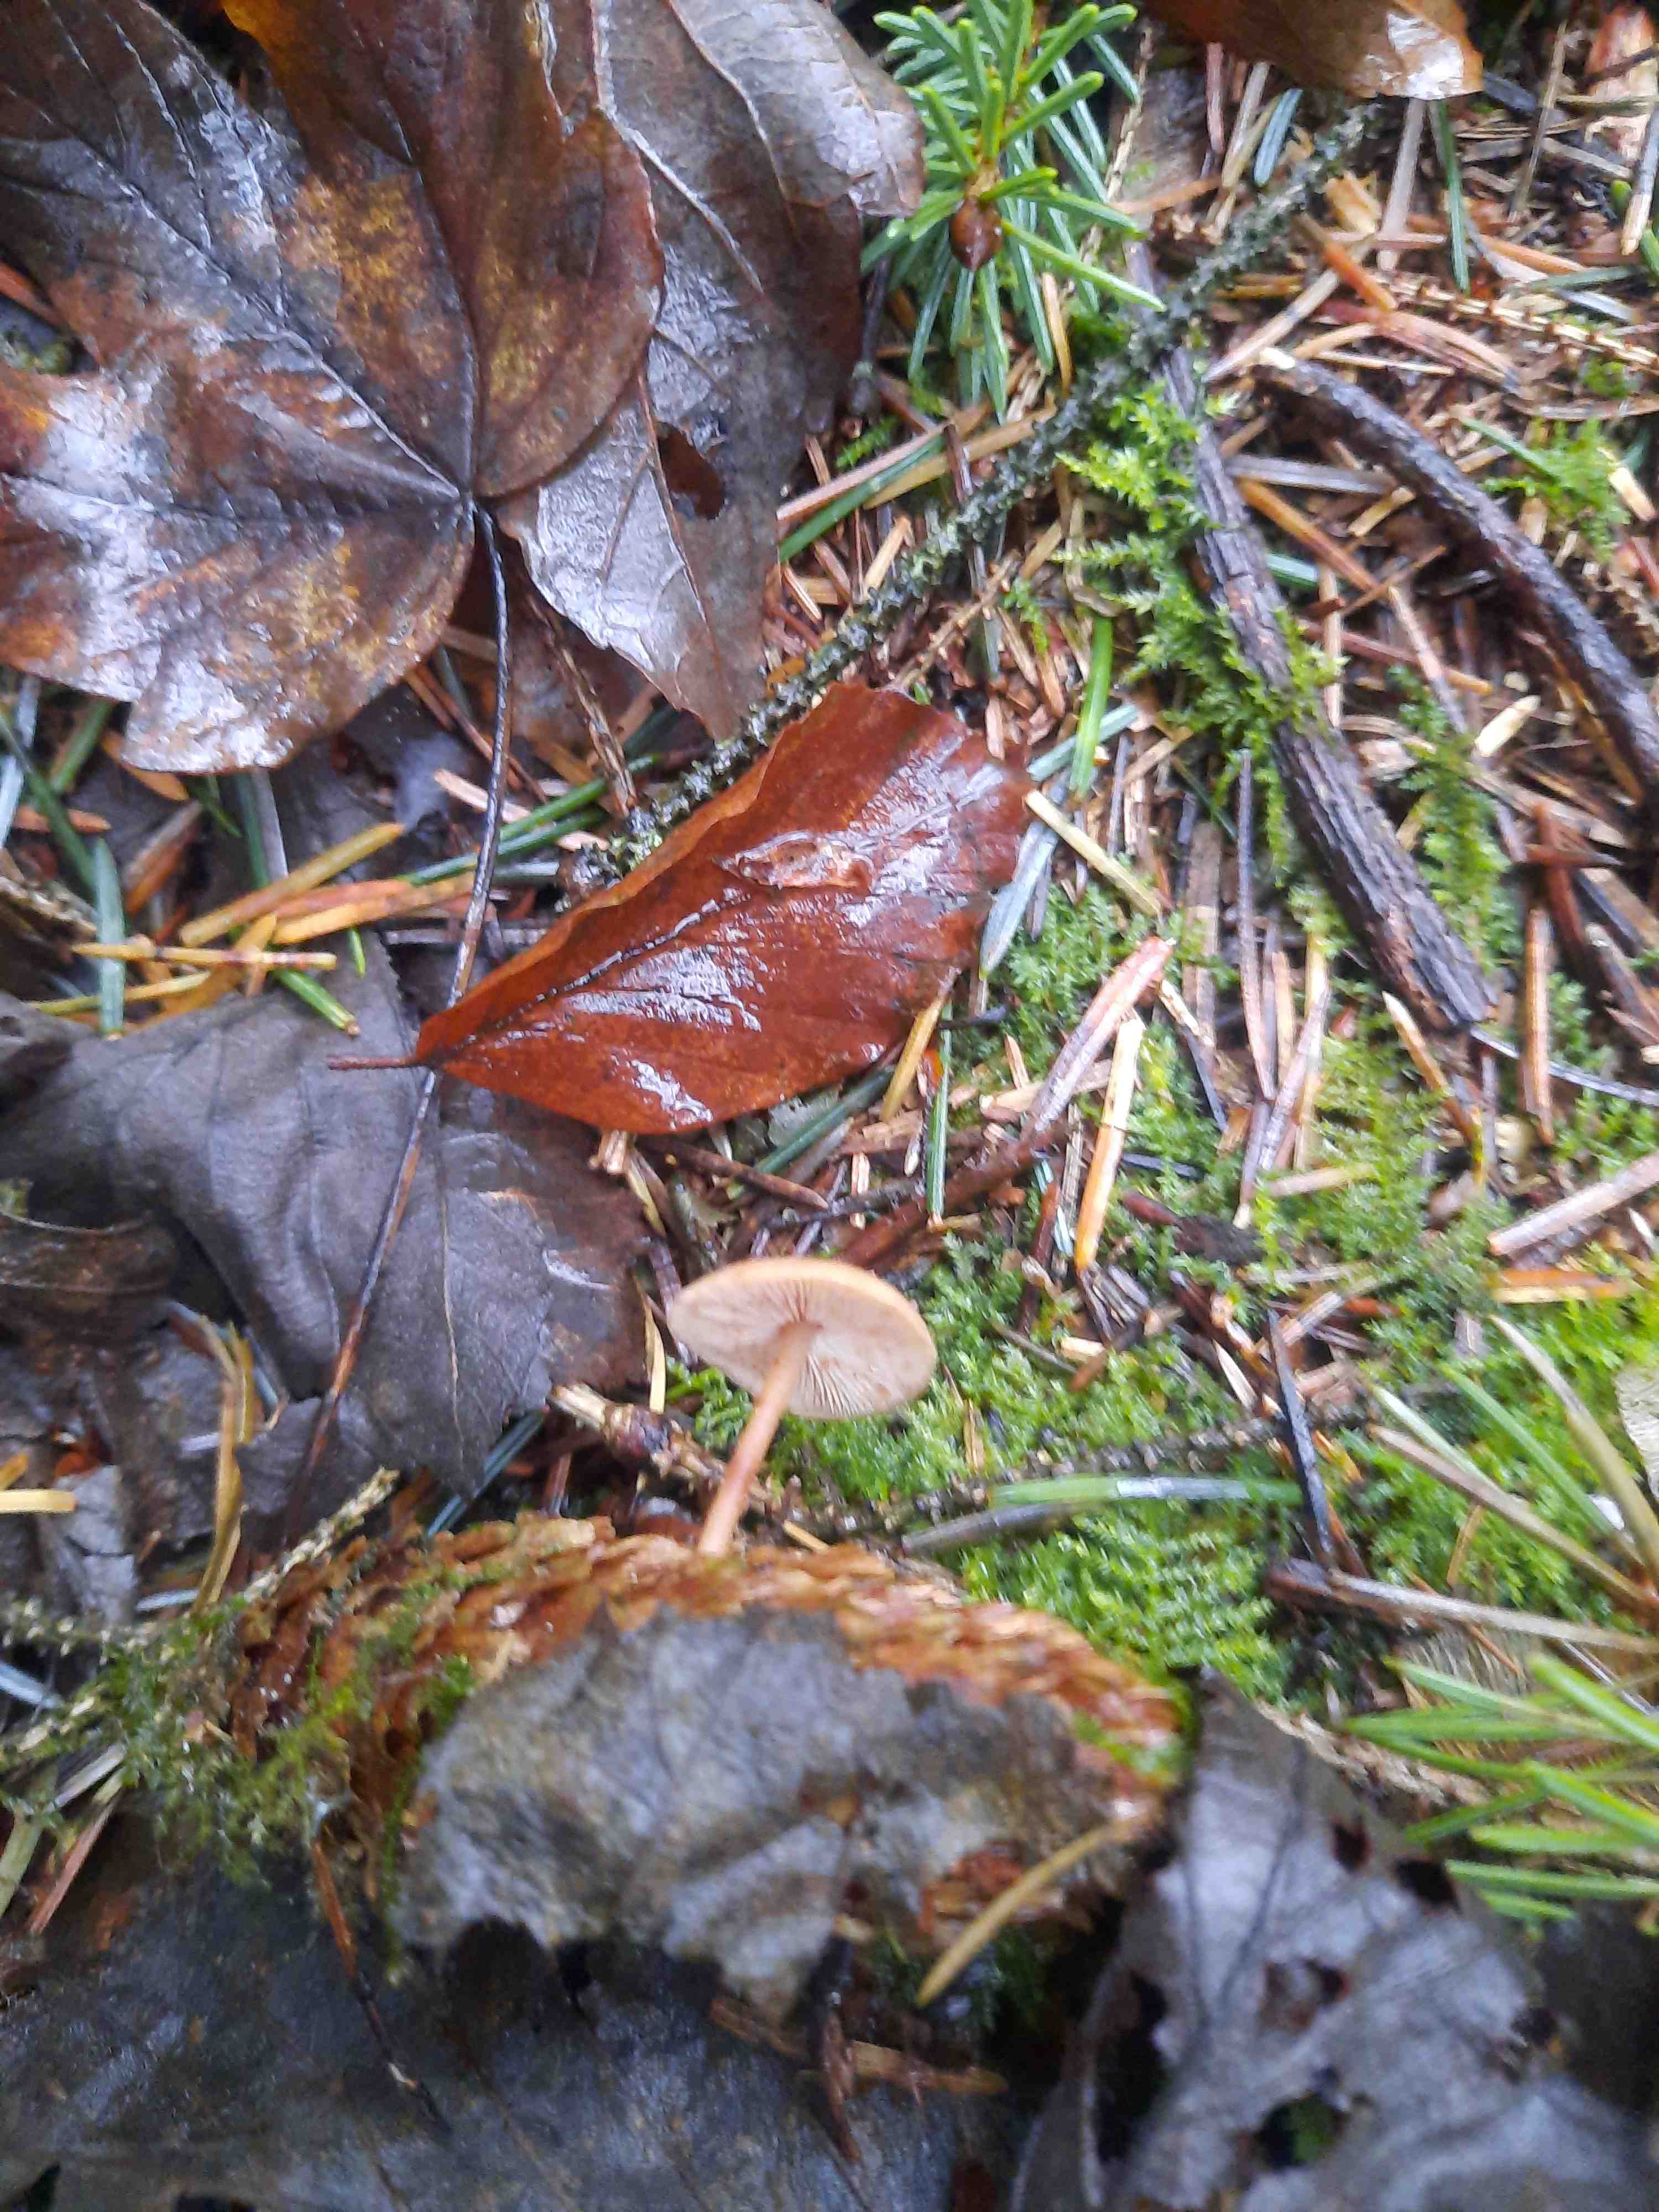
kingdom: Fungi
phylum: Basidiomycota
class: Agaricomycetes
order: Agaricales
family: Physalacriaceae
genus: Strobilurus
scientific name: Strobilurus esculentus
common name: gran-koglehat
